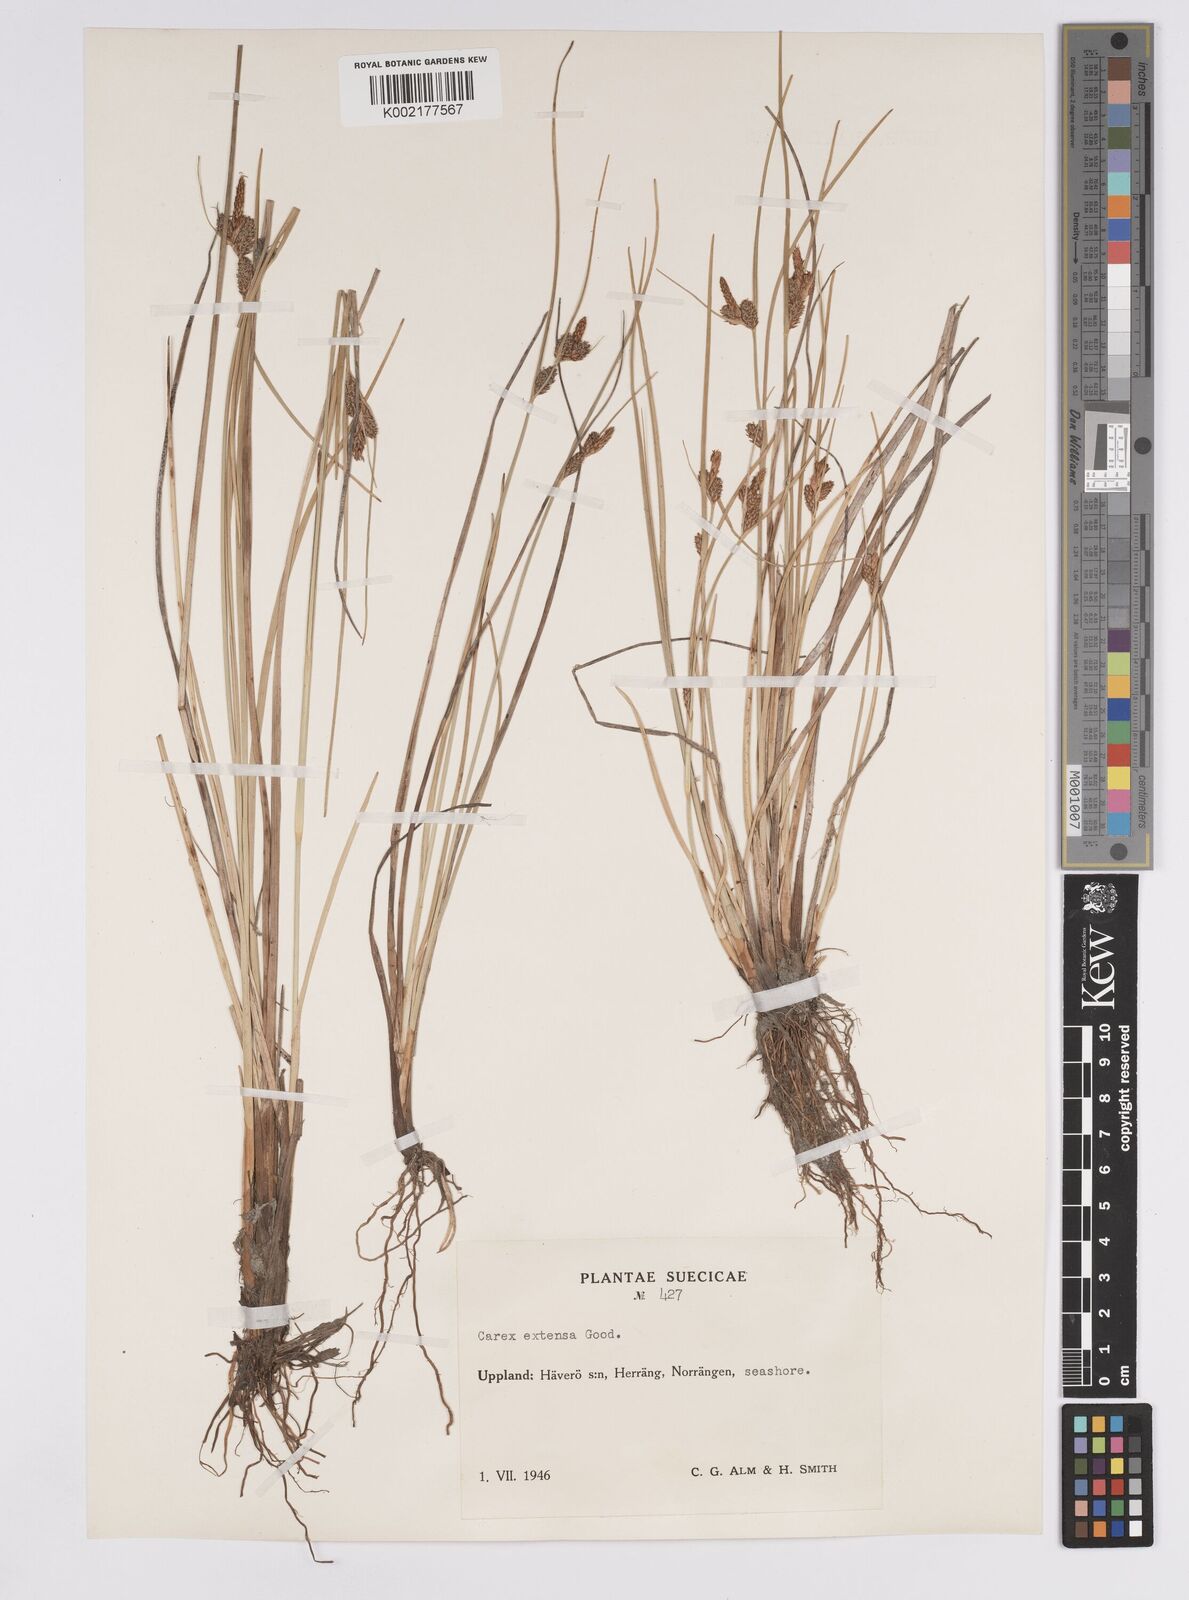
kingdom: Plantae
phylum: Tracheophyta
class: Liliopsida
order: Poales
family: Cyperaceae
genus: Carex
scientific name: Carex extensa
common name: Long-bracted sedge
